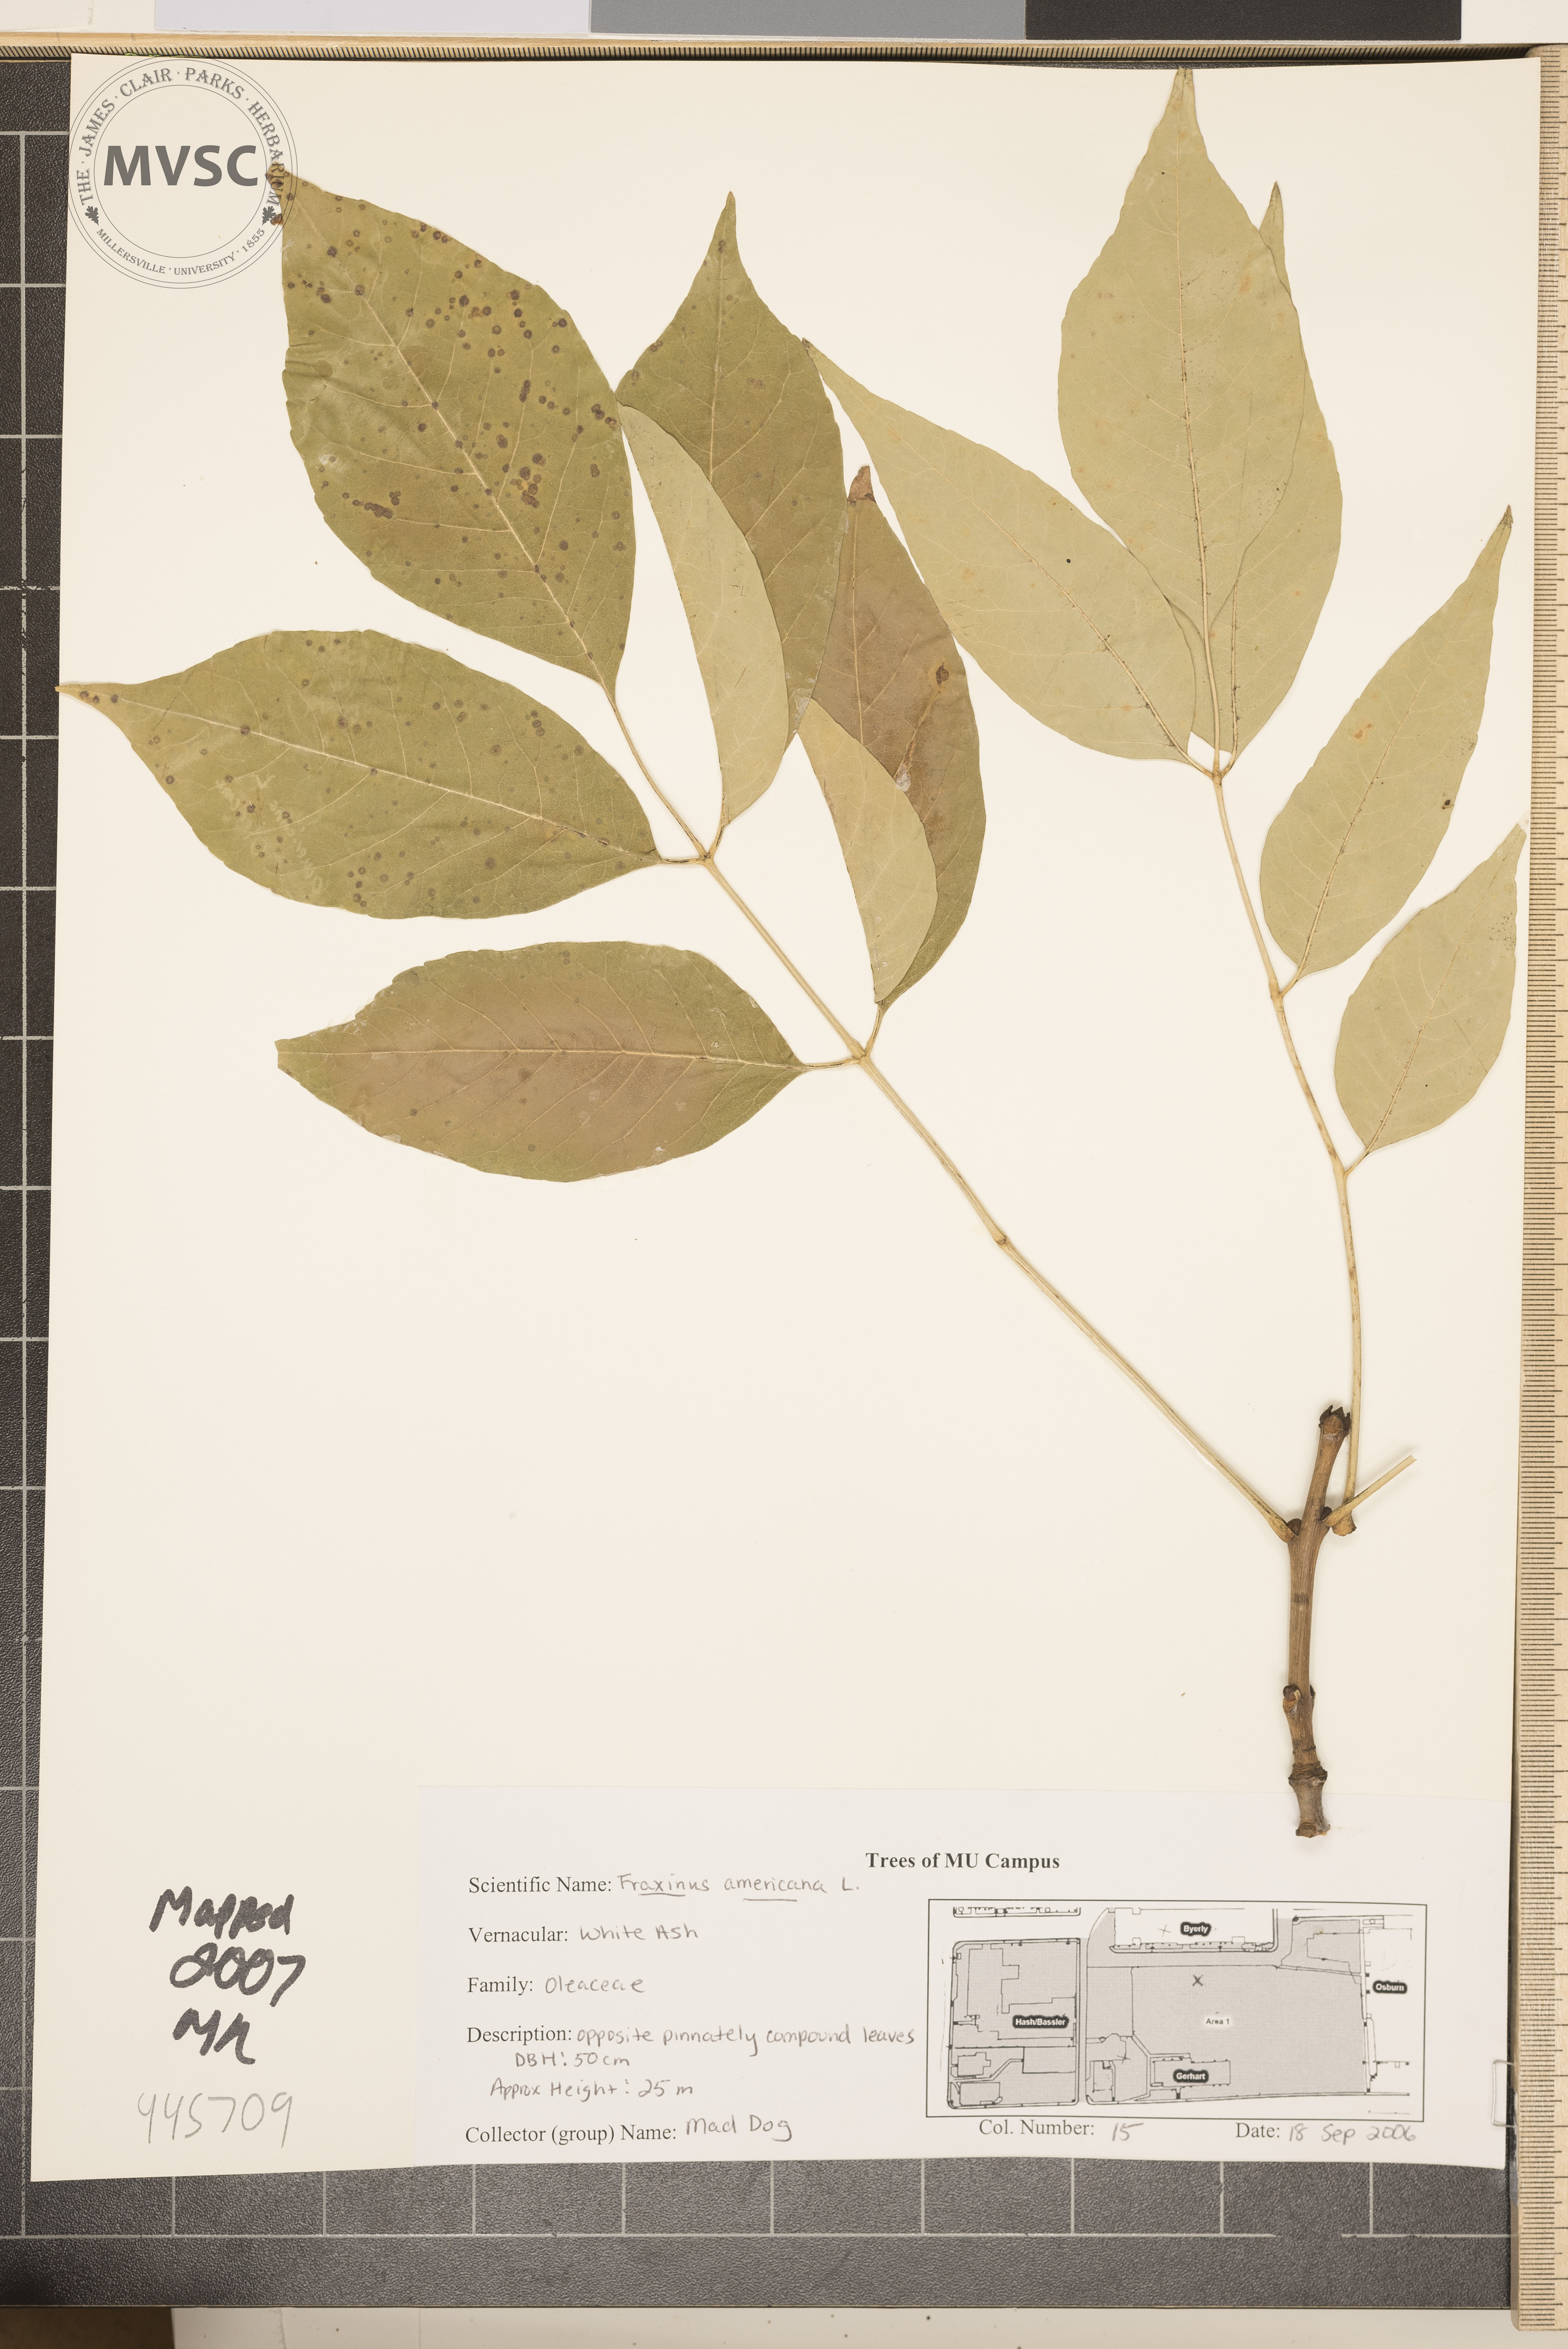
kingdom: Plantae
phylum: Tracheophyta
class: Magnoliopsida
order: Lamiales
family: Oleaceae
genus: Fraxinus
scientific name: Fraxinus americana
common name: White ash
